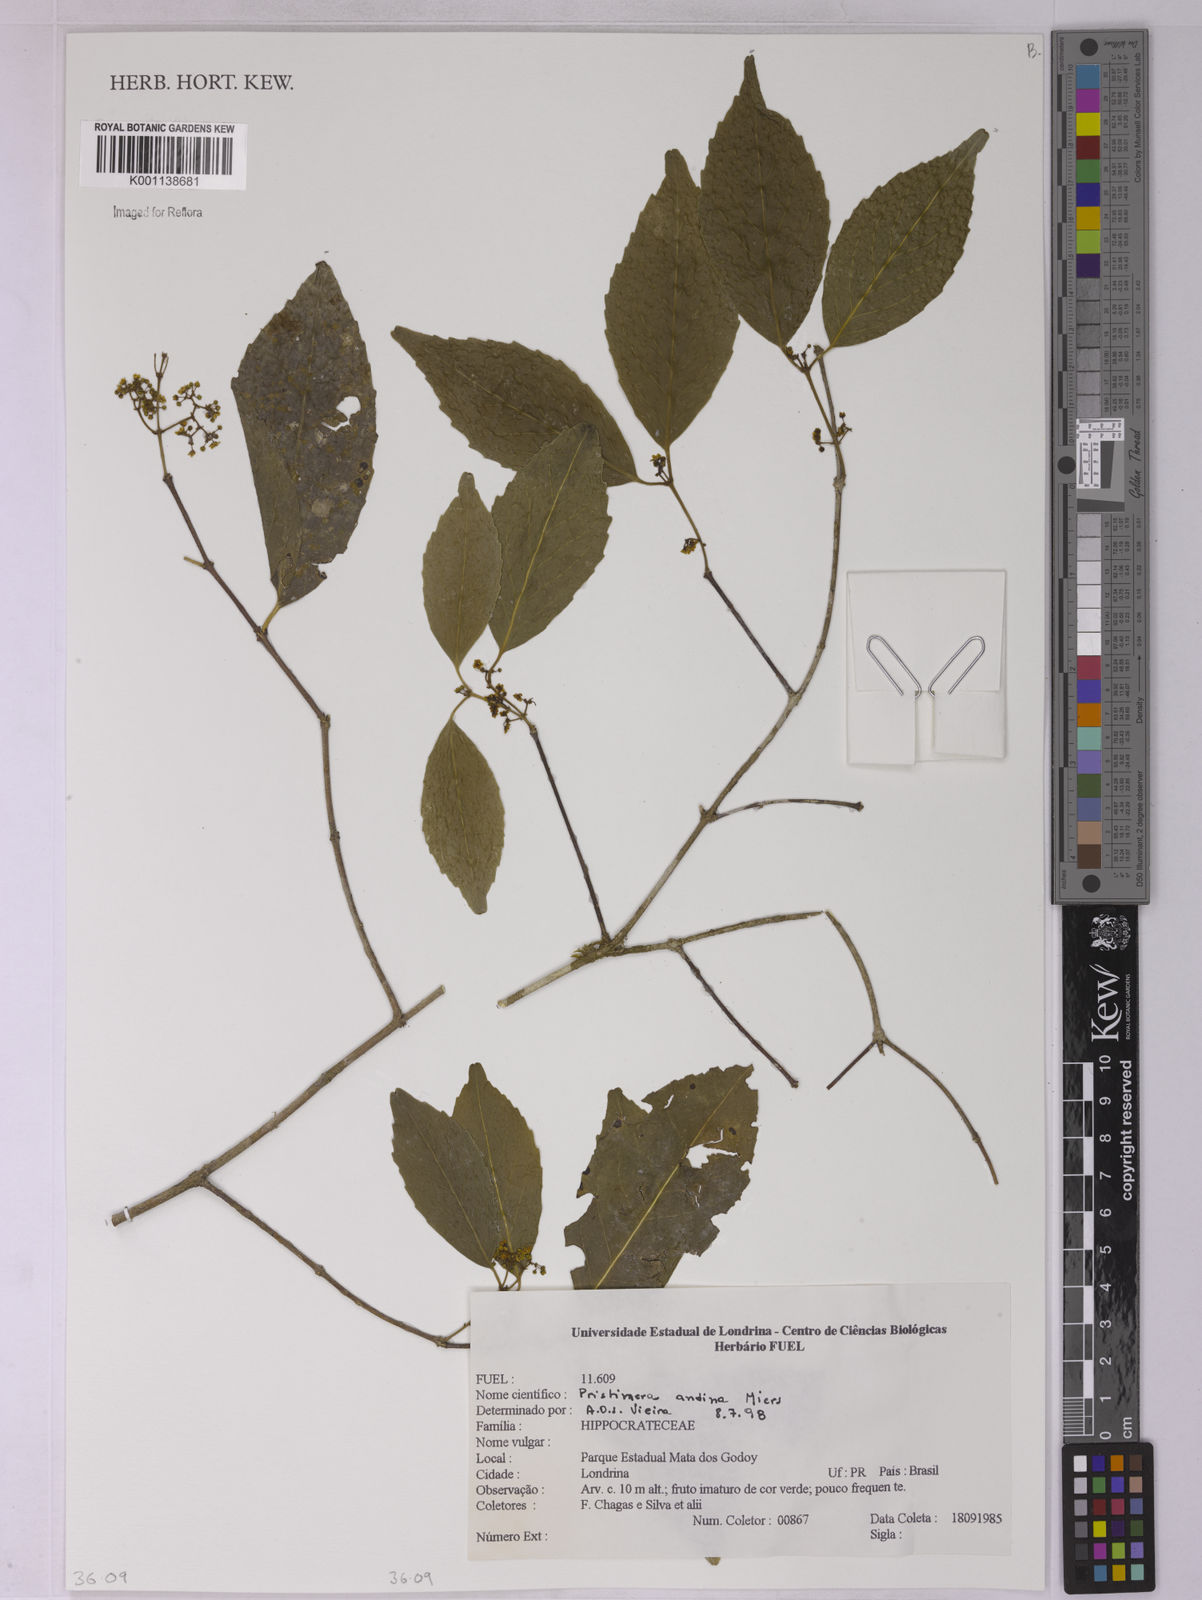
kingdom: Plantae
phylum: Tracheophyta
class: Magnoliopsida
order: Celastrales
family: Celastraceae
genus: Pristimera
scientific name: Pristimera celastroides
